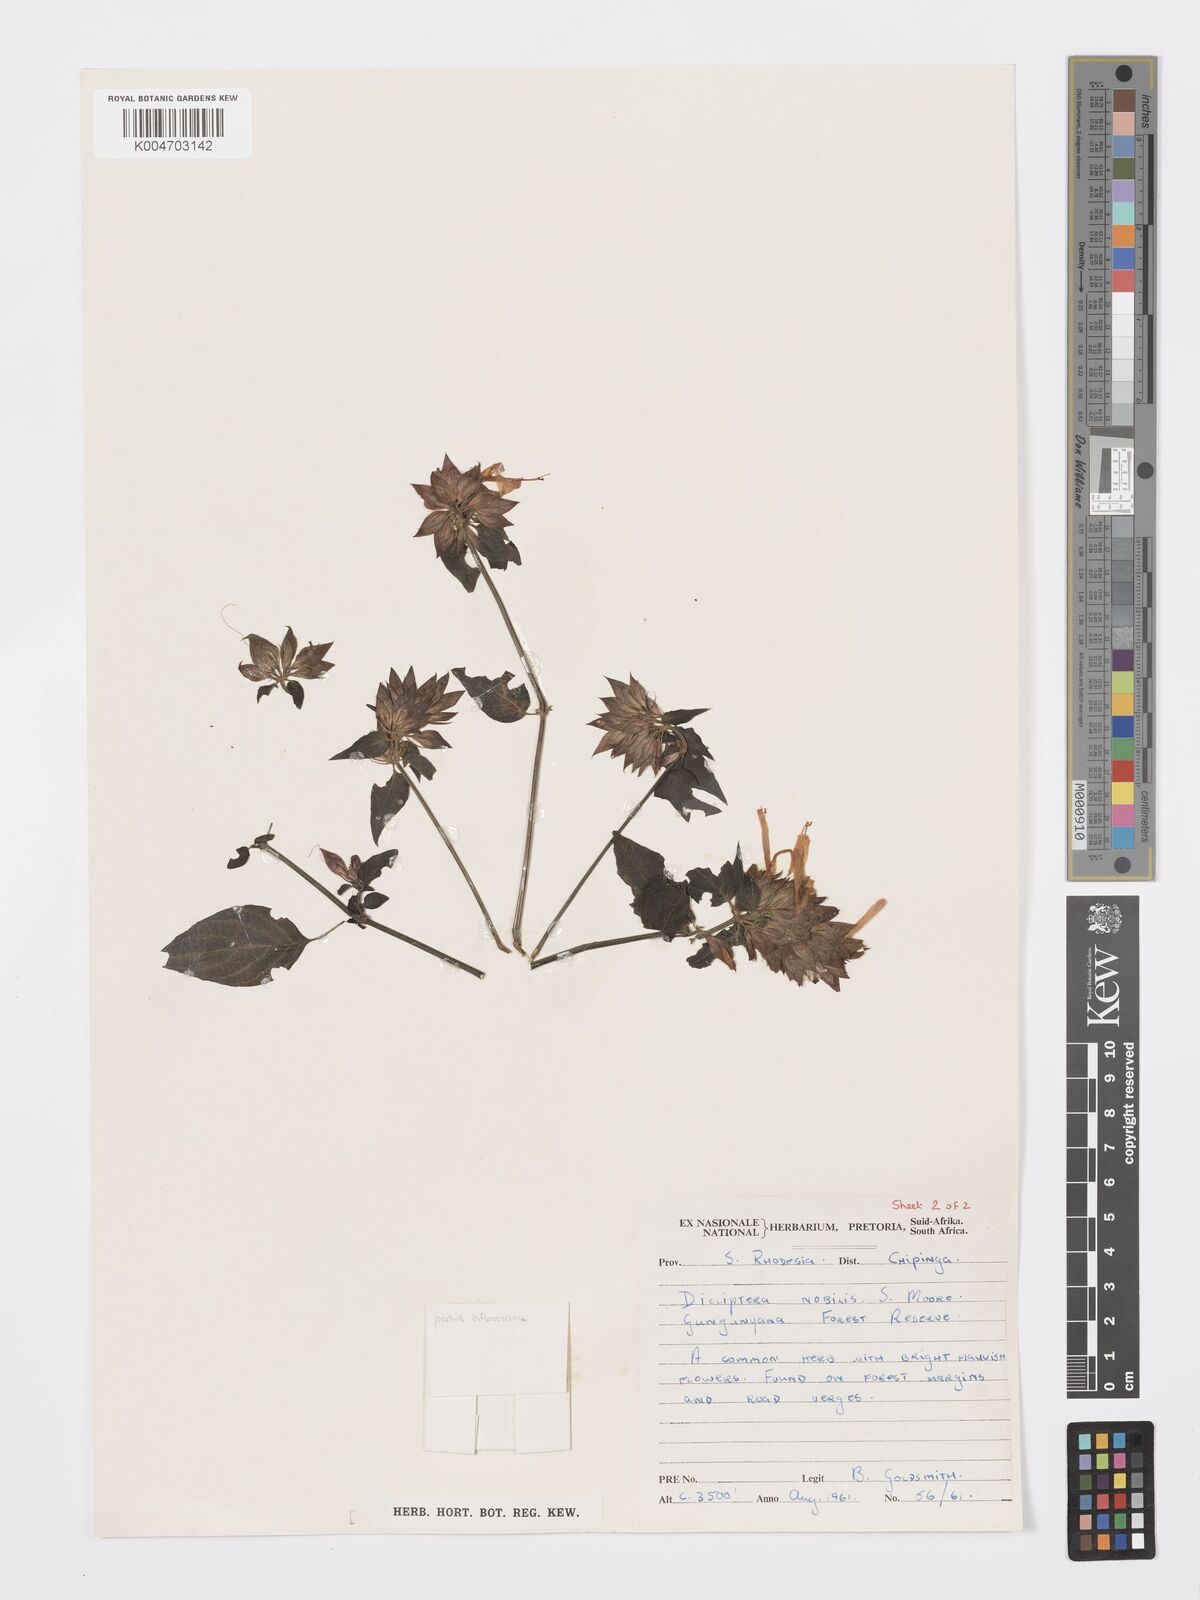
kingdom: Plantae
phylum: Tracheophyta
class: Magnoliopsida
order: Lamiales
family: Acanthaceae
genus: Dicliptera
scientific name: Dicliptera clinopodia
